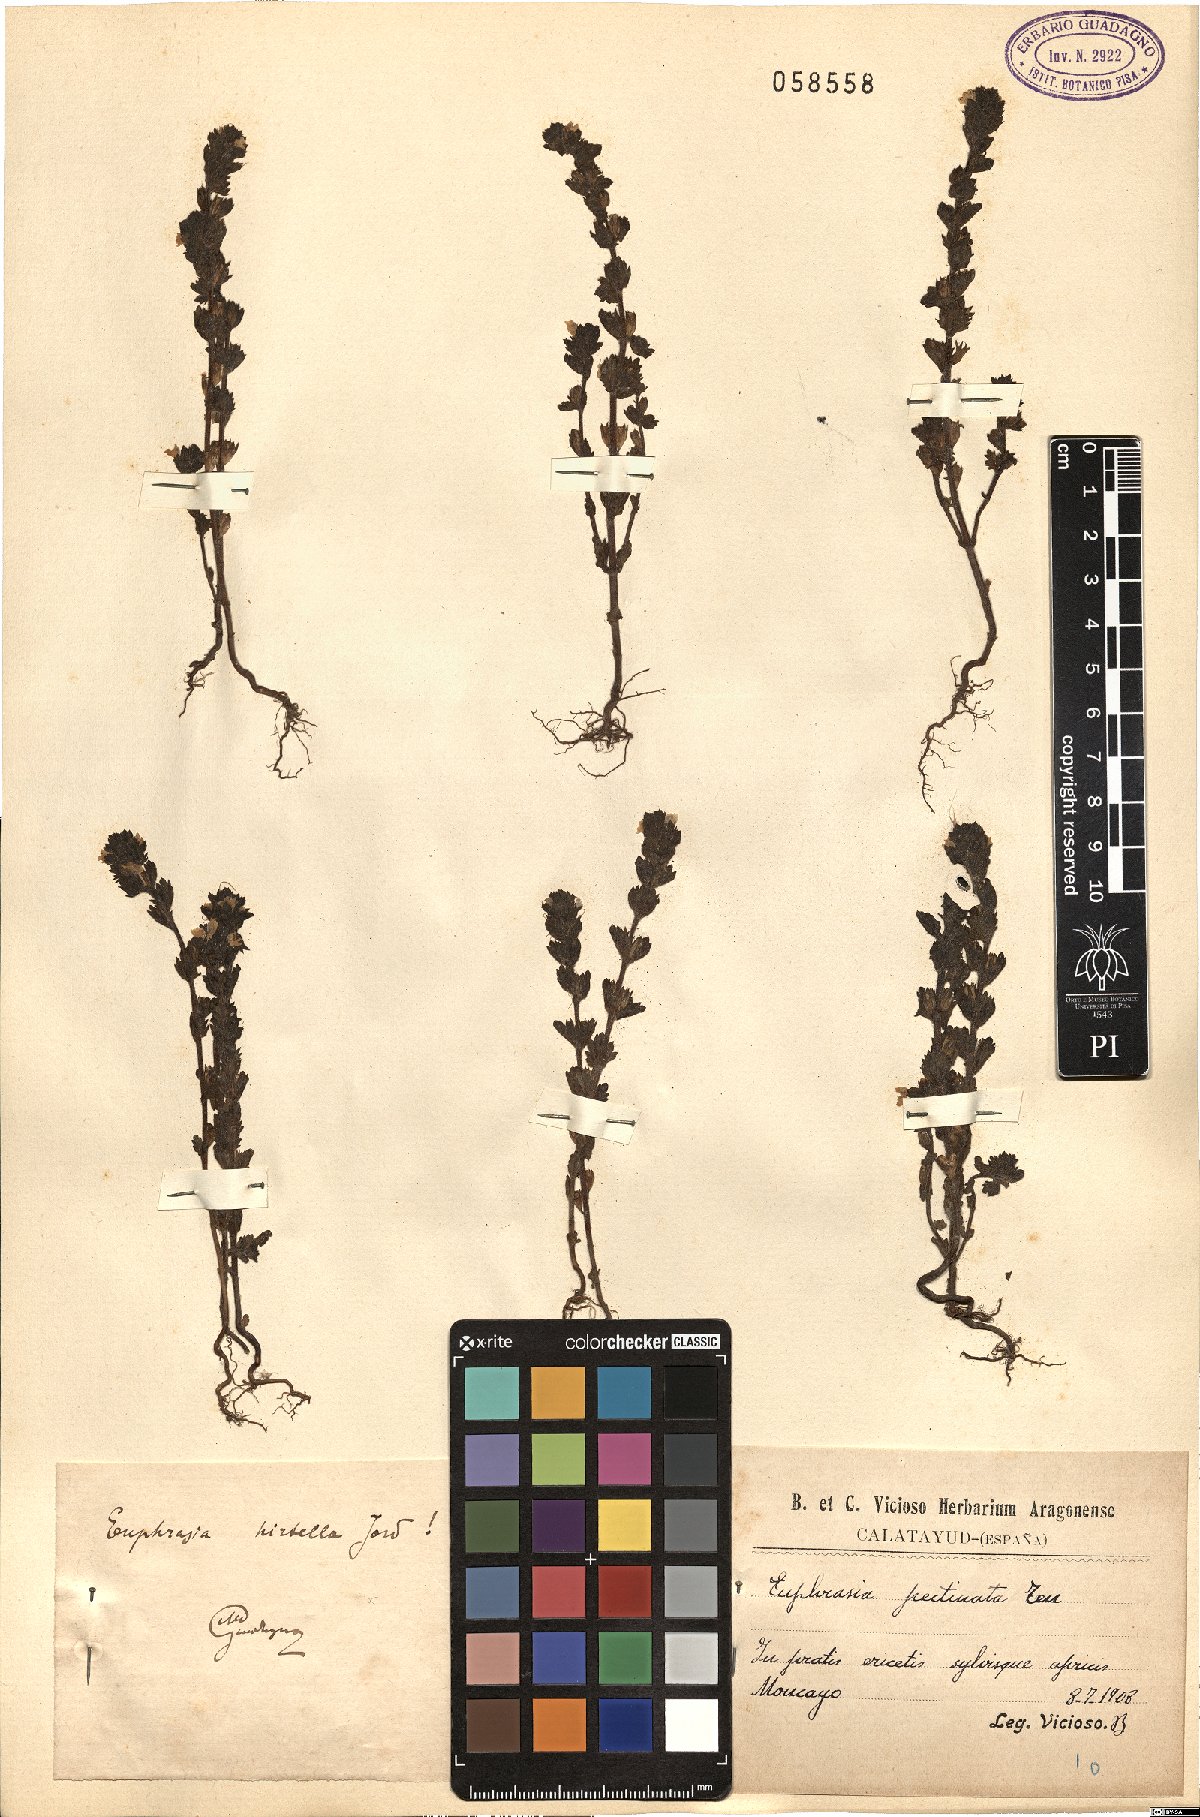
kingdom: Plantae
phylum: Tracheophyta
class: Magnoliopsida
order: Lamiales
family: Orobanchaceae
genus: Euphrasia
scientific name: Euphrasia hirtella
